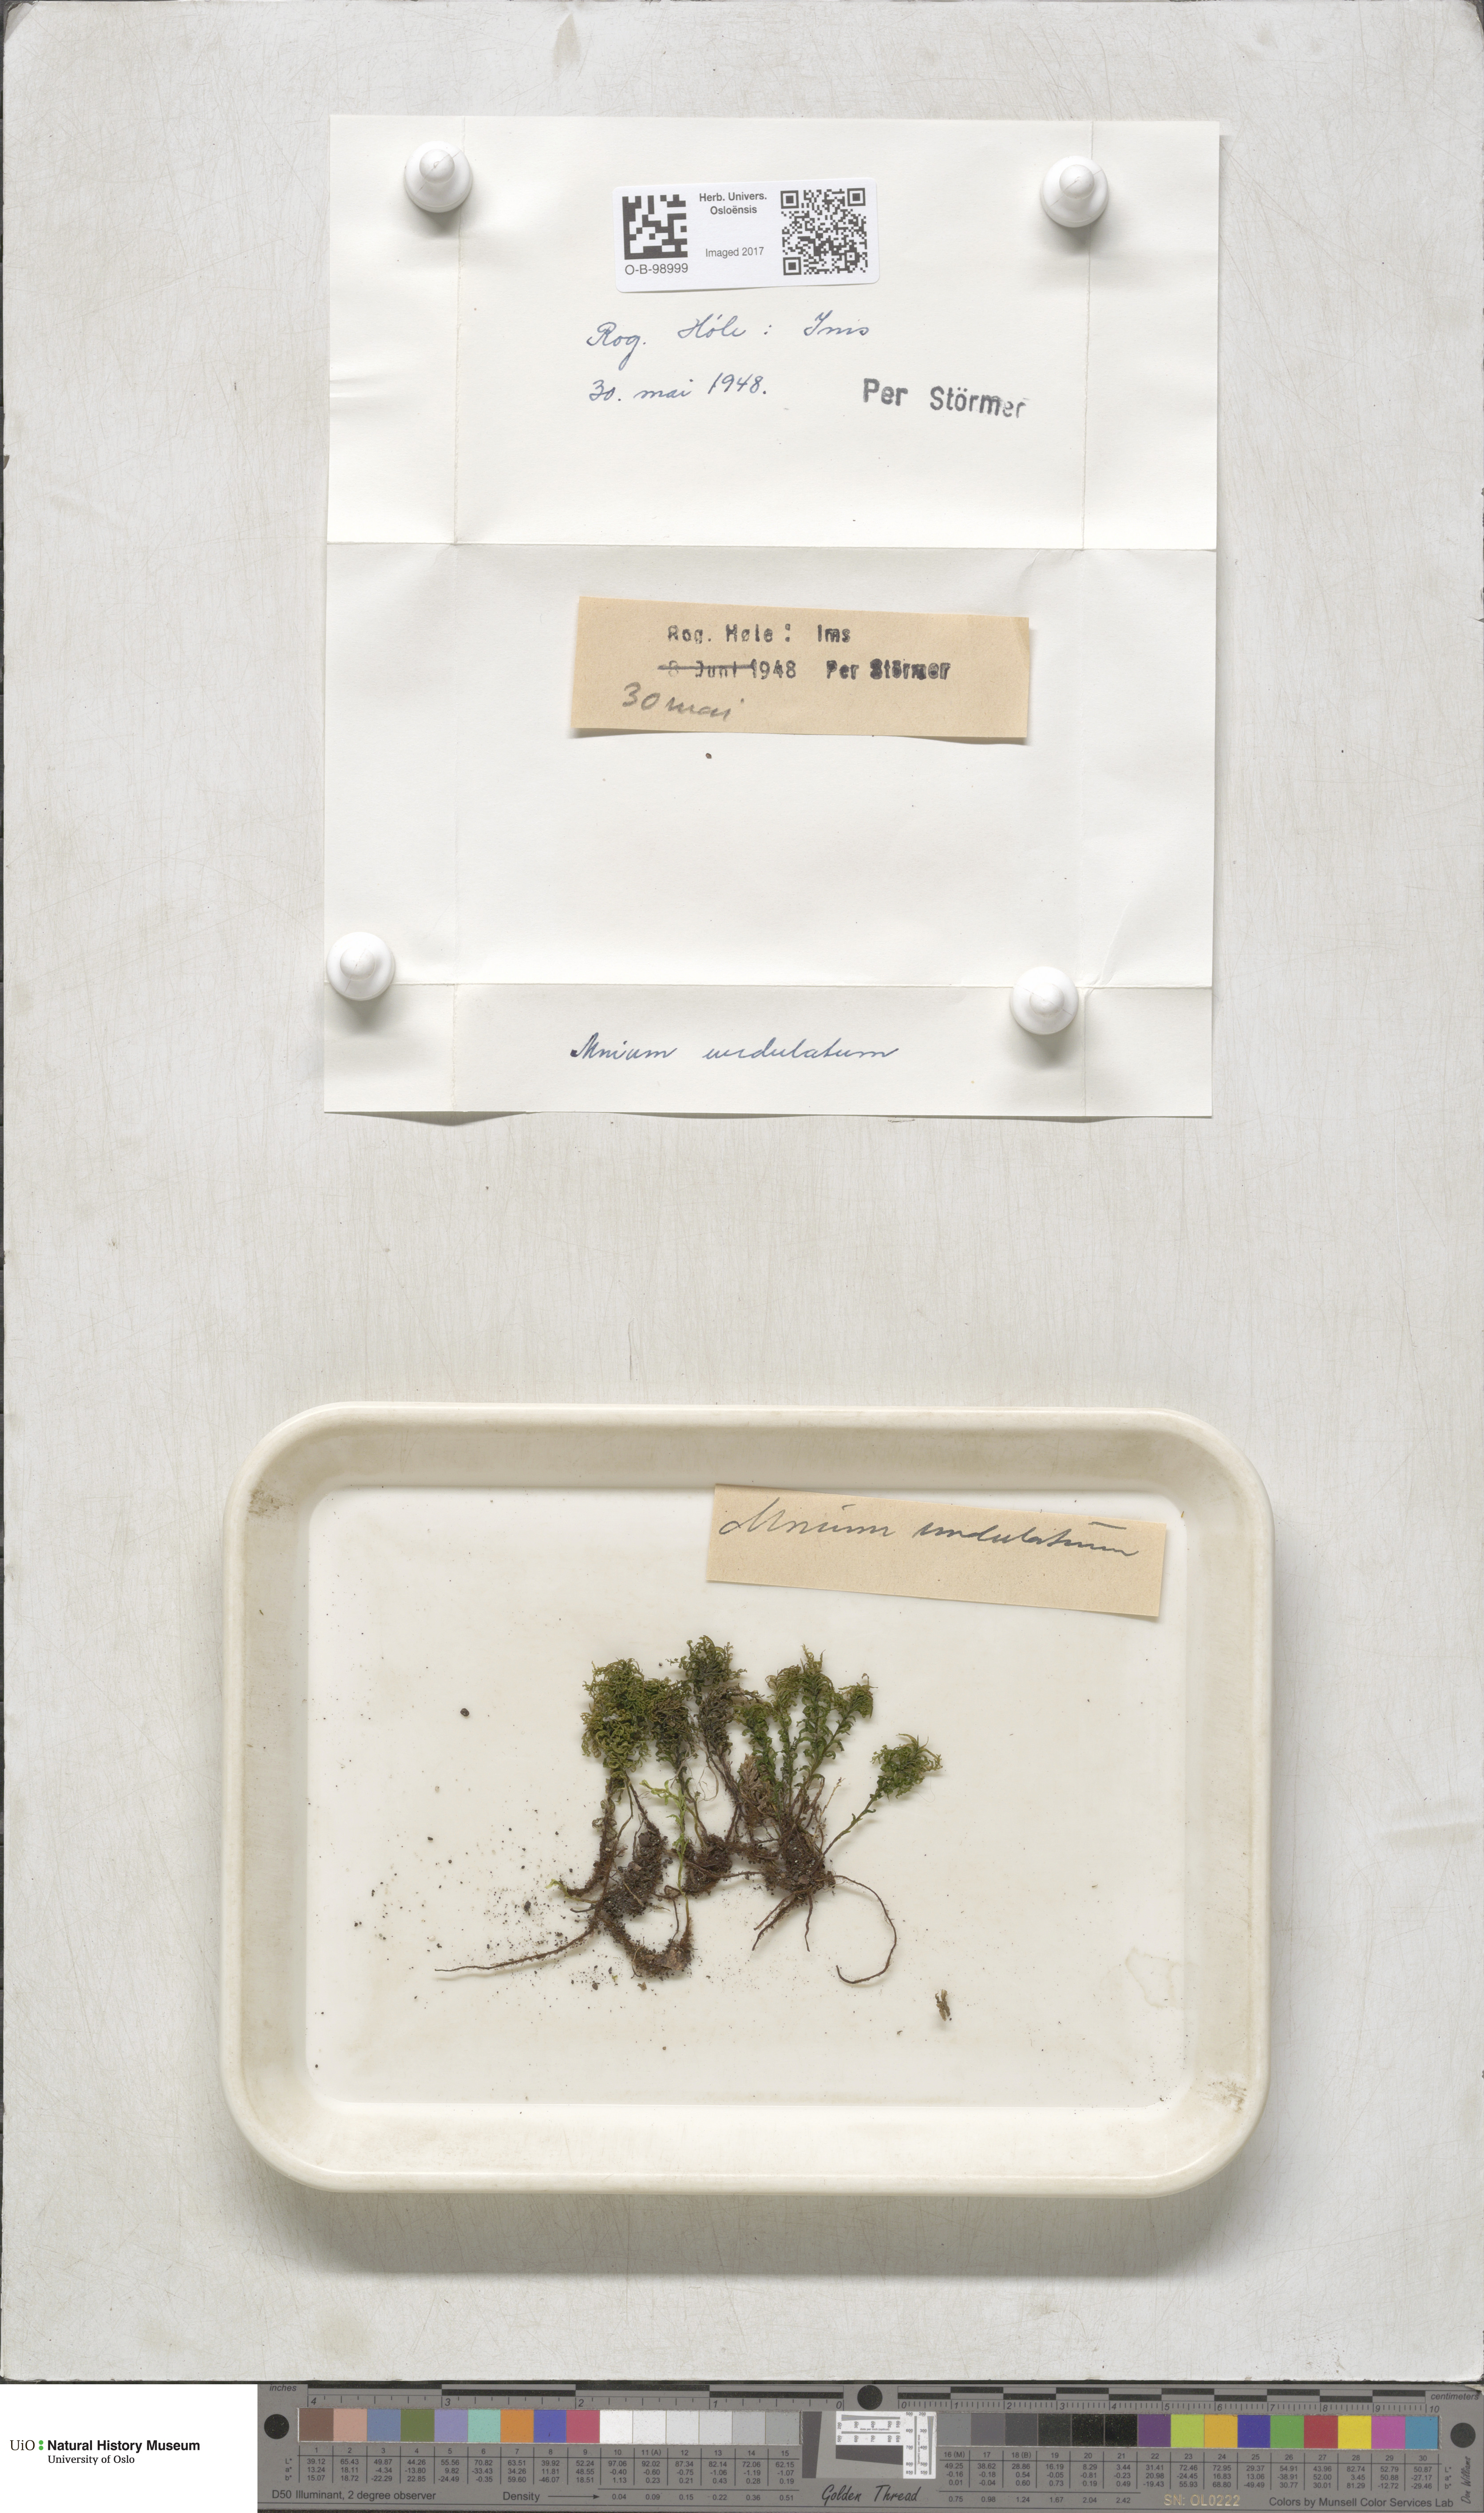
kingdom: Plantae
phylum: Bryophyta
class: Bryopsida
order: Bryales
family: Mniaceae
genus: Plagiomnium
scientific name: Plagiomnium undulatum
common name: Hart's-tongue thyme-moss
